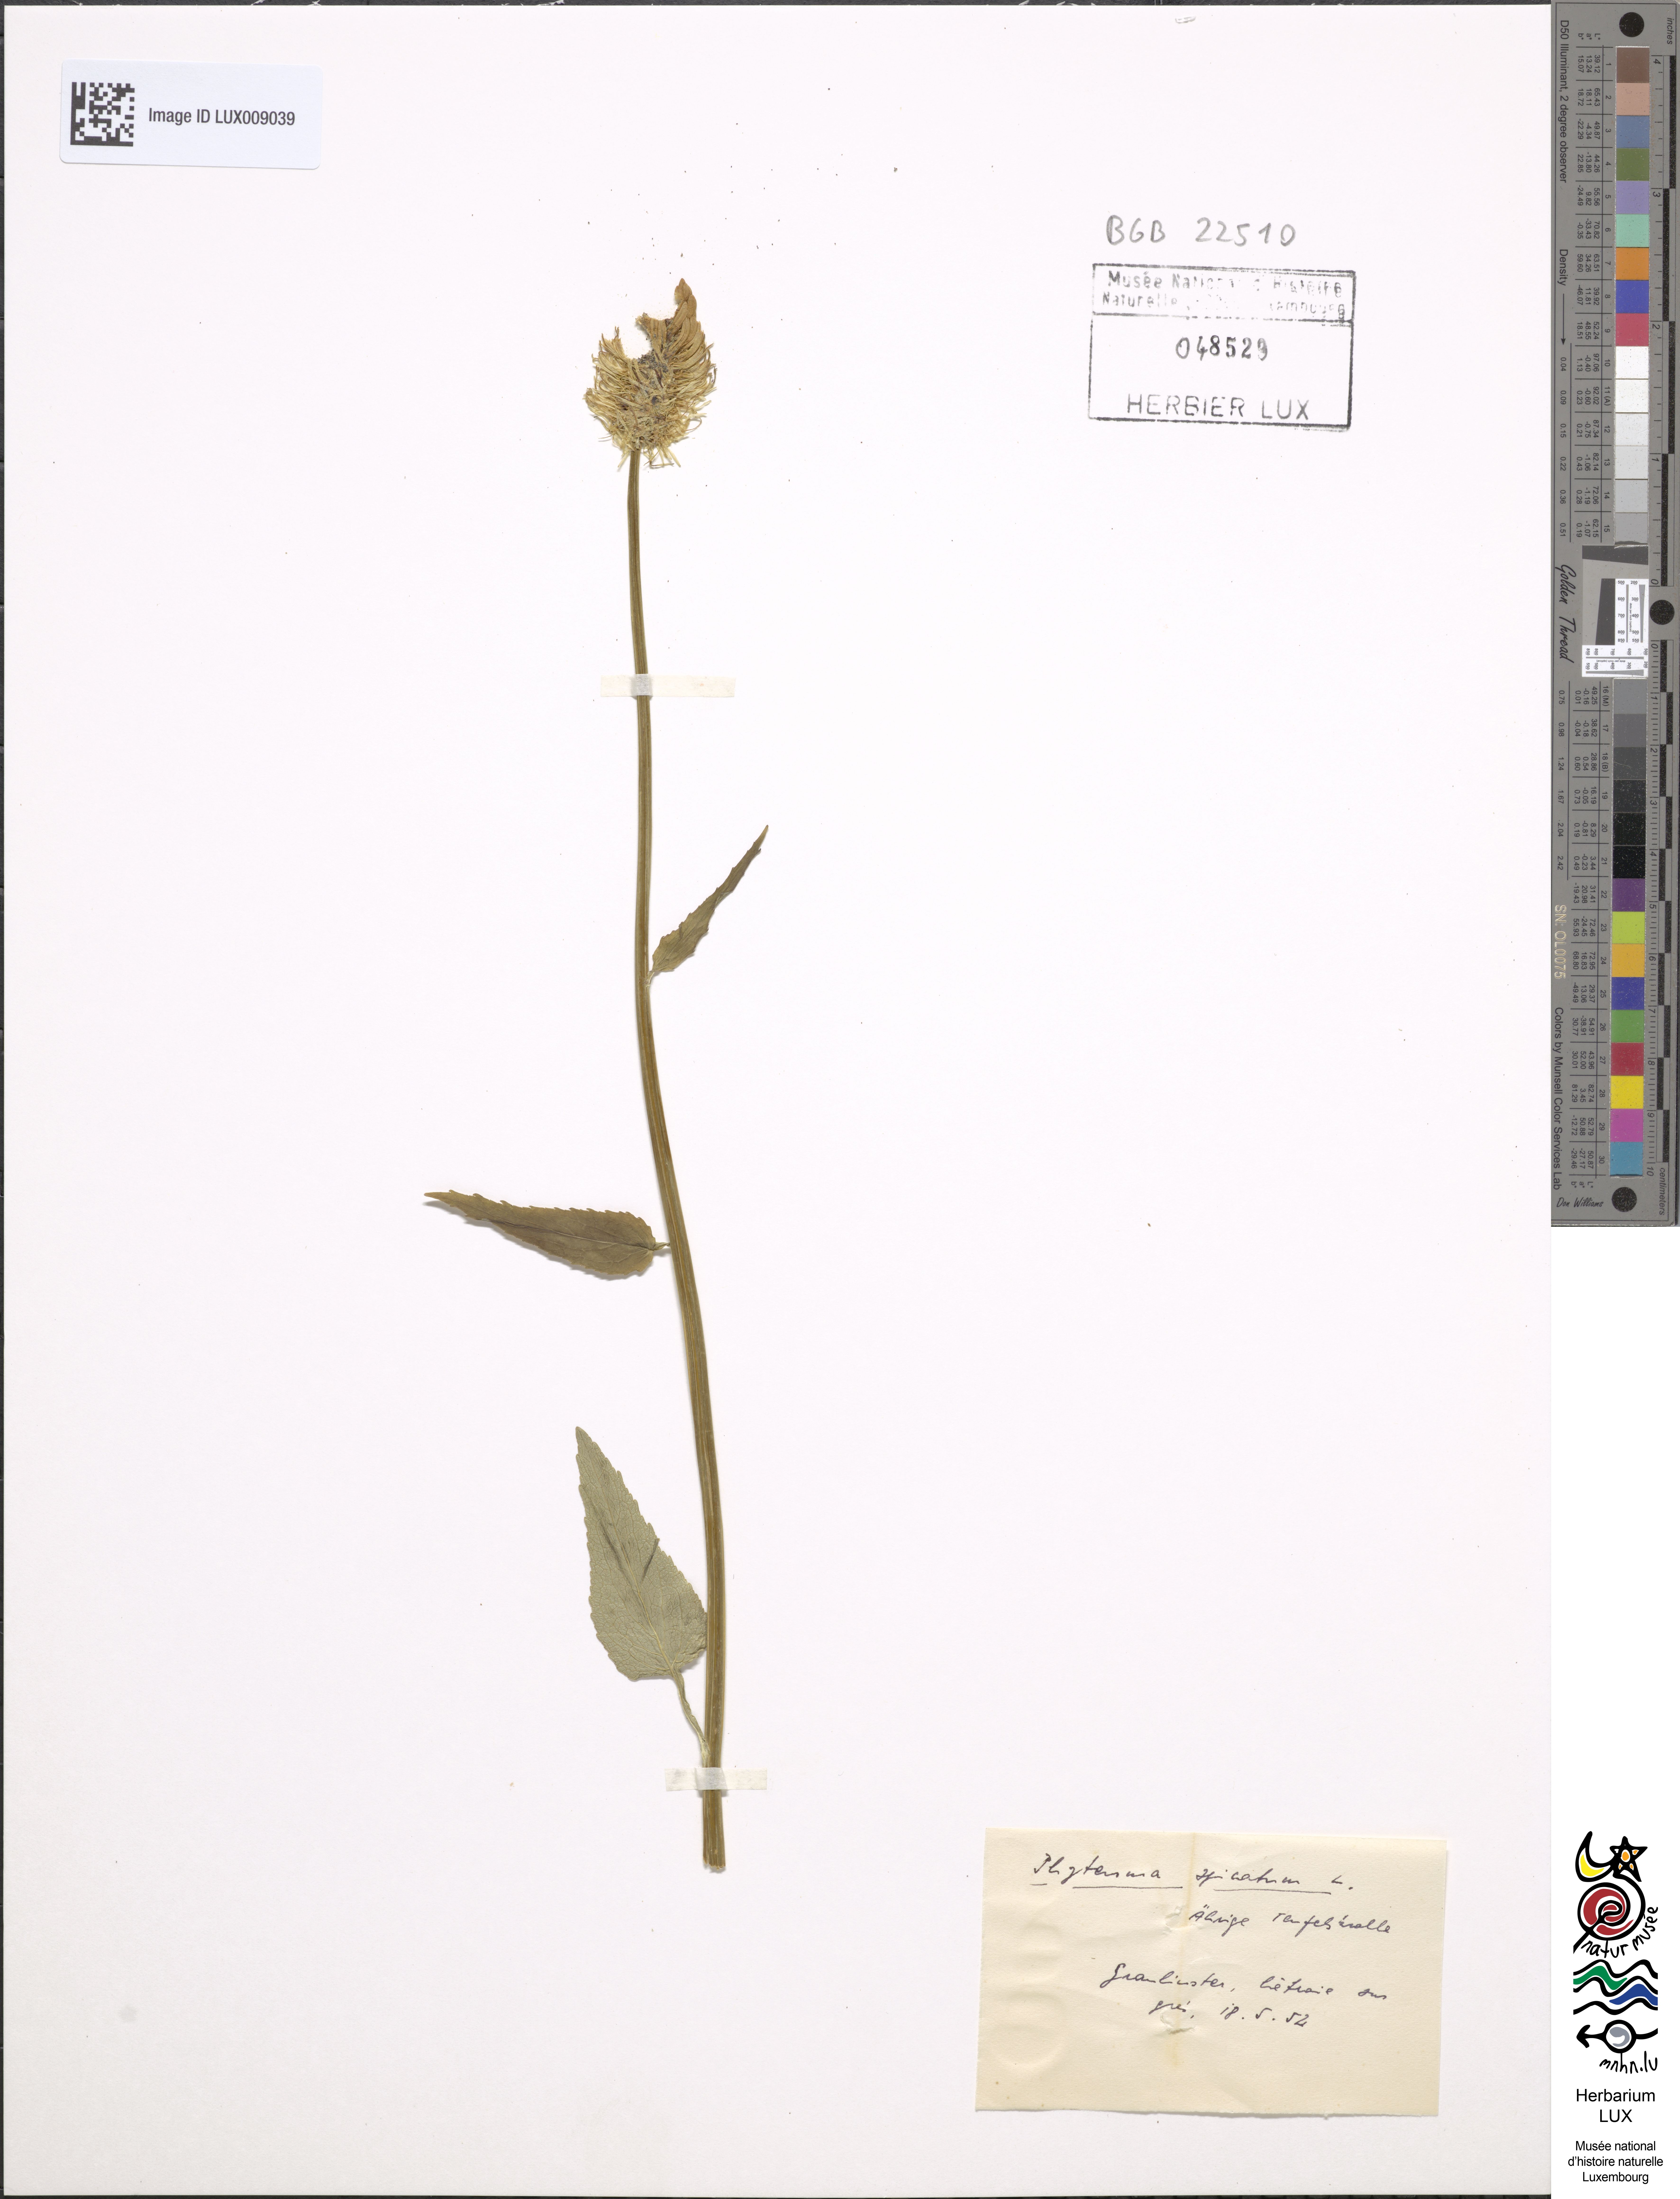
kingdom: Plantae
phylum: Tracheophyta
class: Magnoliopsida
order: Asterales
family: Campanulaceae
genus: Phyteuma
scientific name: Phyteuma spicatum
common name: Spiked rampion
